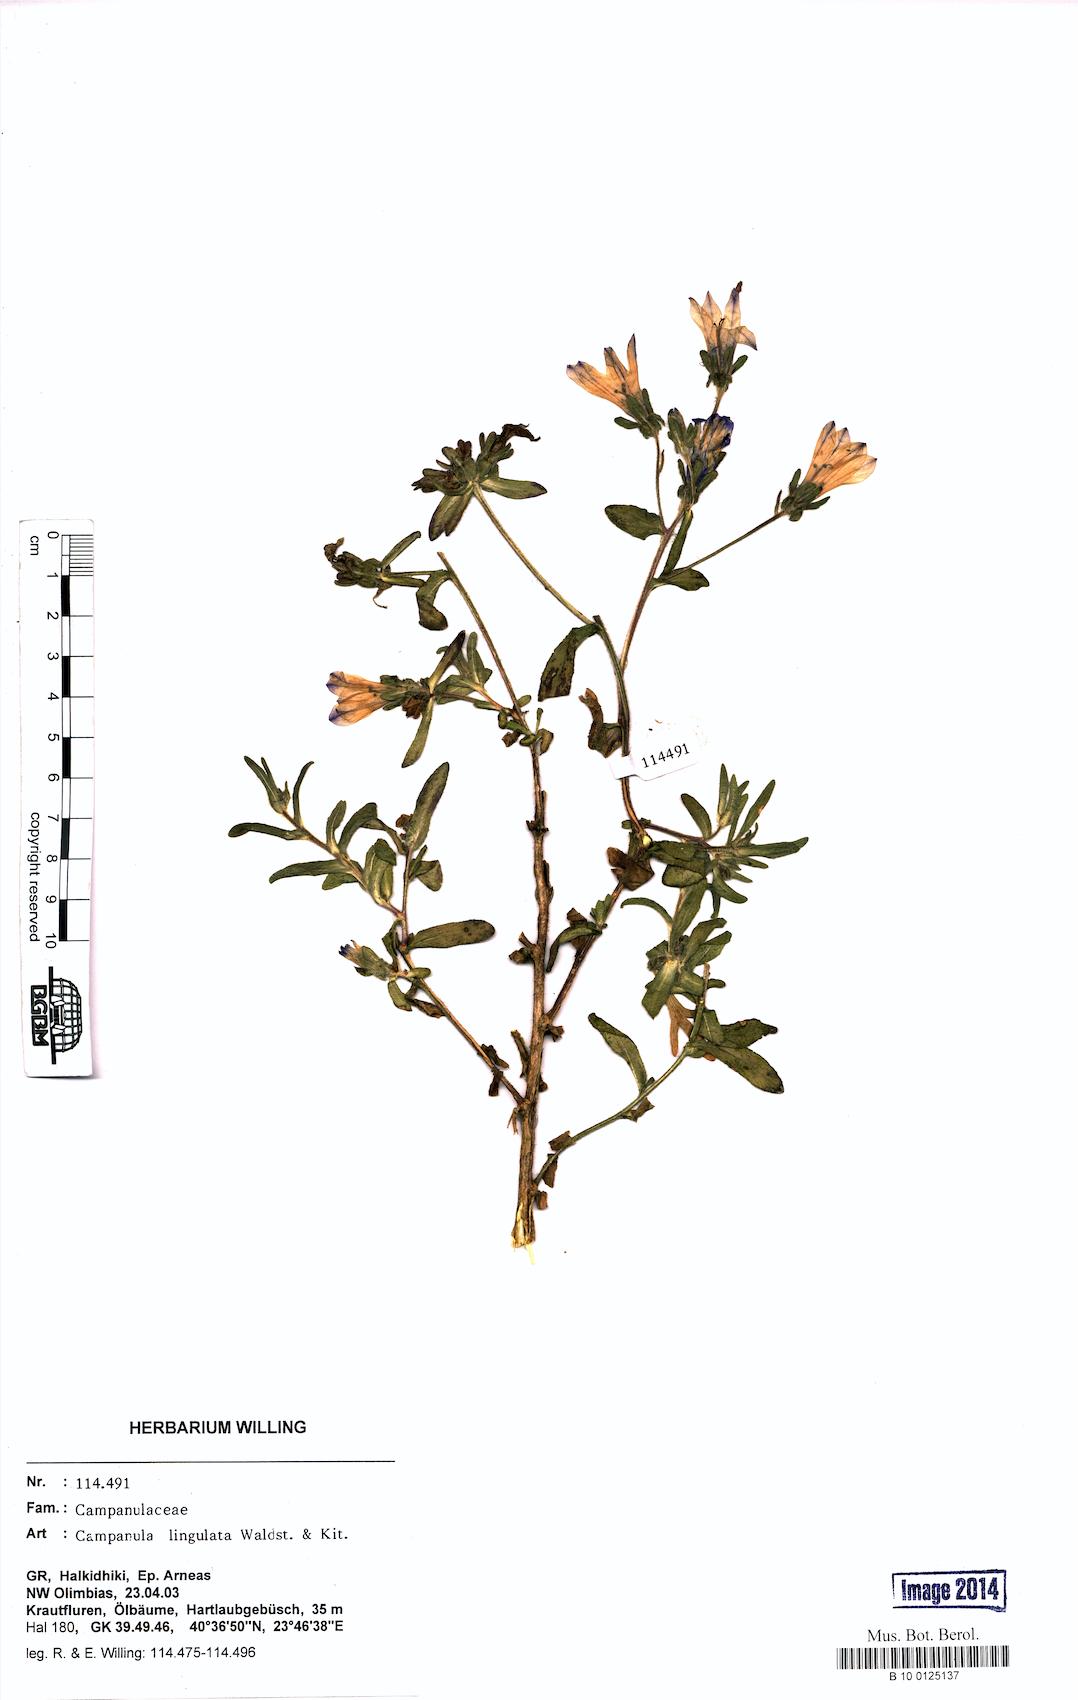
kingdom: Plantae
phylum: Tracheophyta
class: Magnoliopsida
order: Asterales
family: Campanulaceae
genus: Campanula
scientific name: Campanula lingulata
